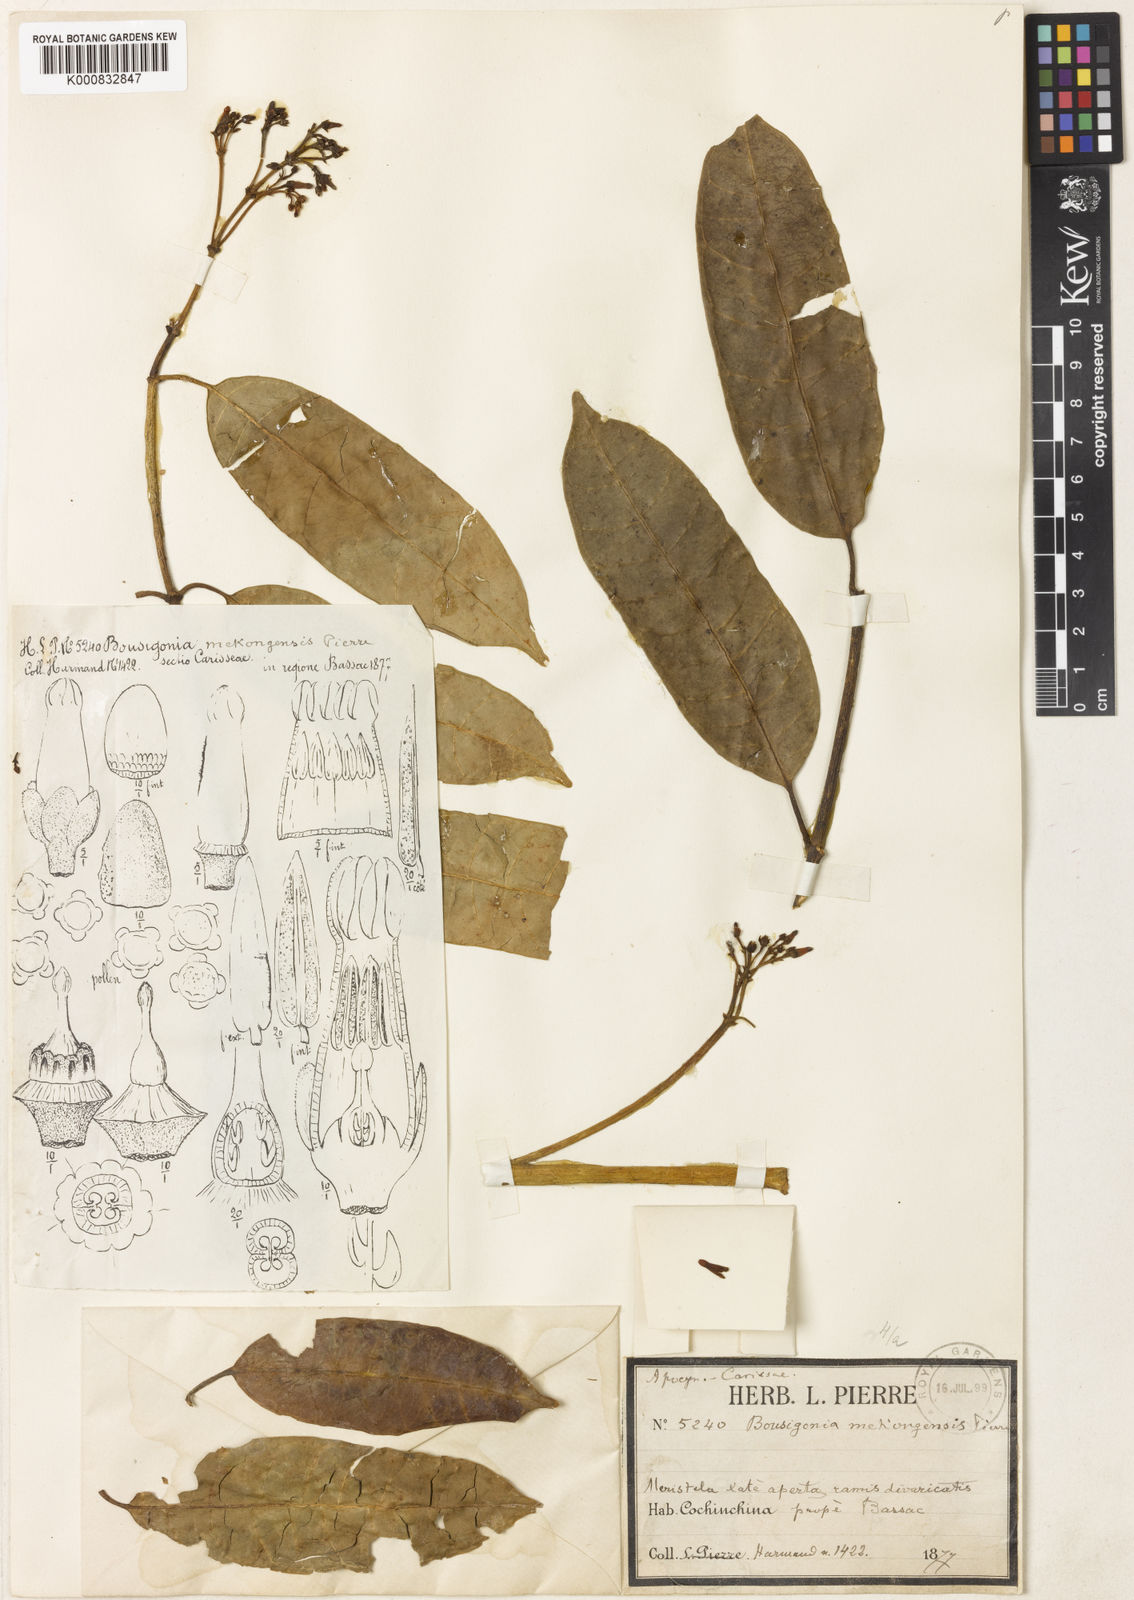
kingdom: Plantae
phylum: Tracheophyta
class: Magnoliopsida
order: Gentianales
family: Apocynaceae
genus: Bousigonia
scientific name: Bousigonia mekongensis
